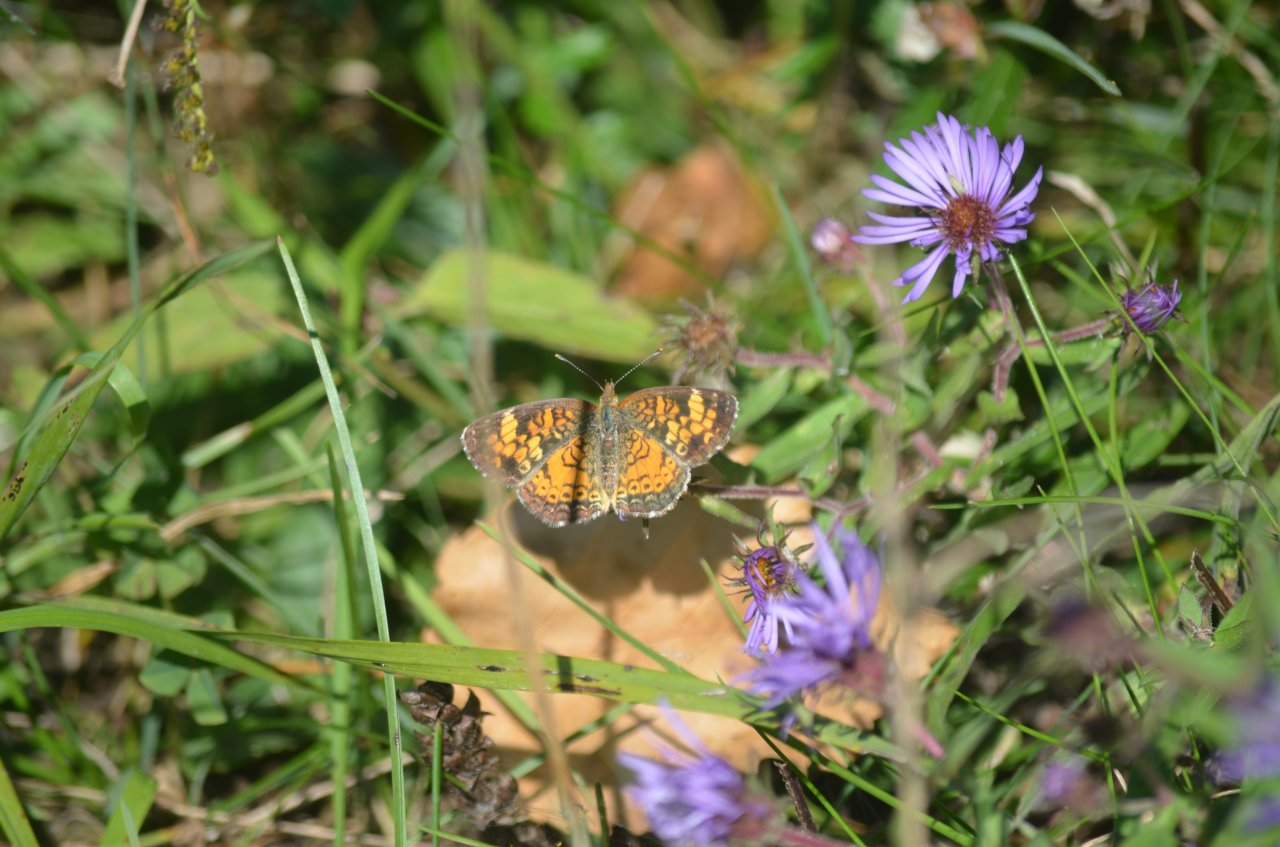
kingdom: Animalia
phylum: Arthropoda
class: Insecta
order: Lepidoptera
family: Nymphalidae
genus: Phyciodes
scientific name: Phyciodes tharos
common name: Northern Crescent
